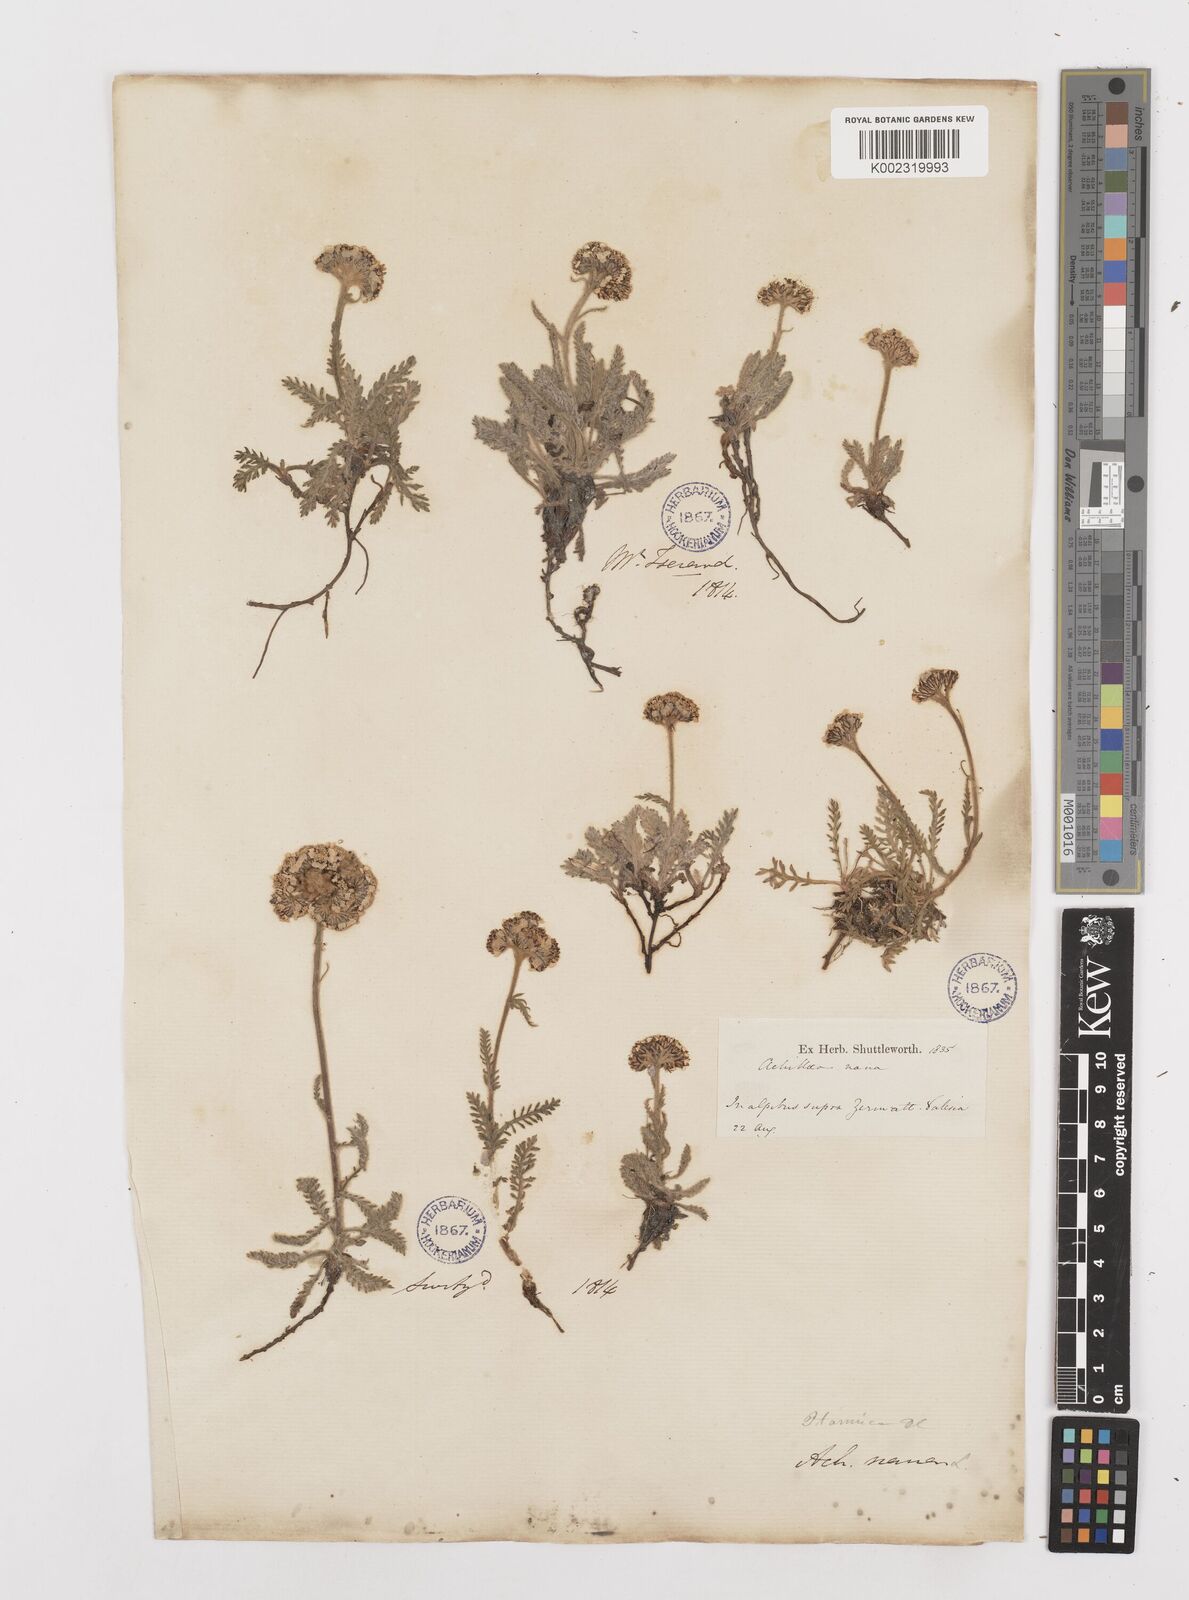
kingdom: Plantae
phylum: Tracheophyta
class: Magnoliopsida
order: Asterales
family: Asteraceae
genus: Achillea
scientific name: Achillea nana
